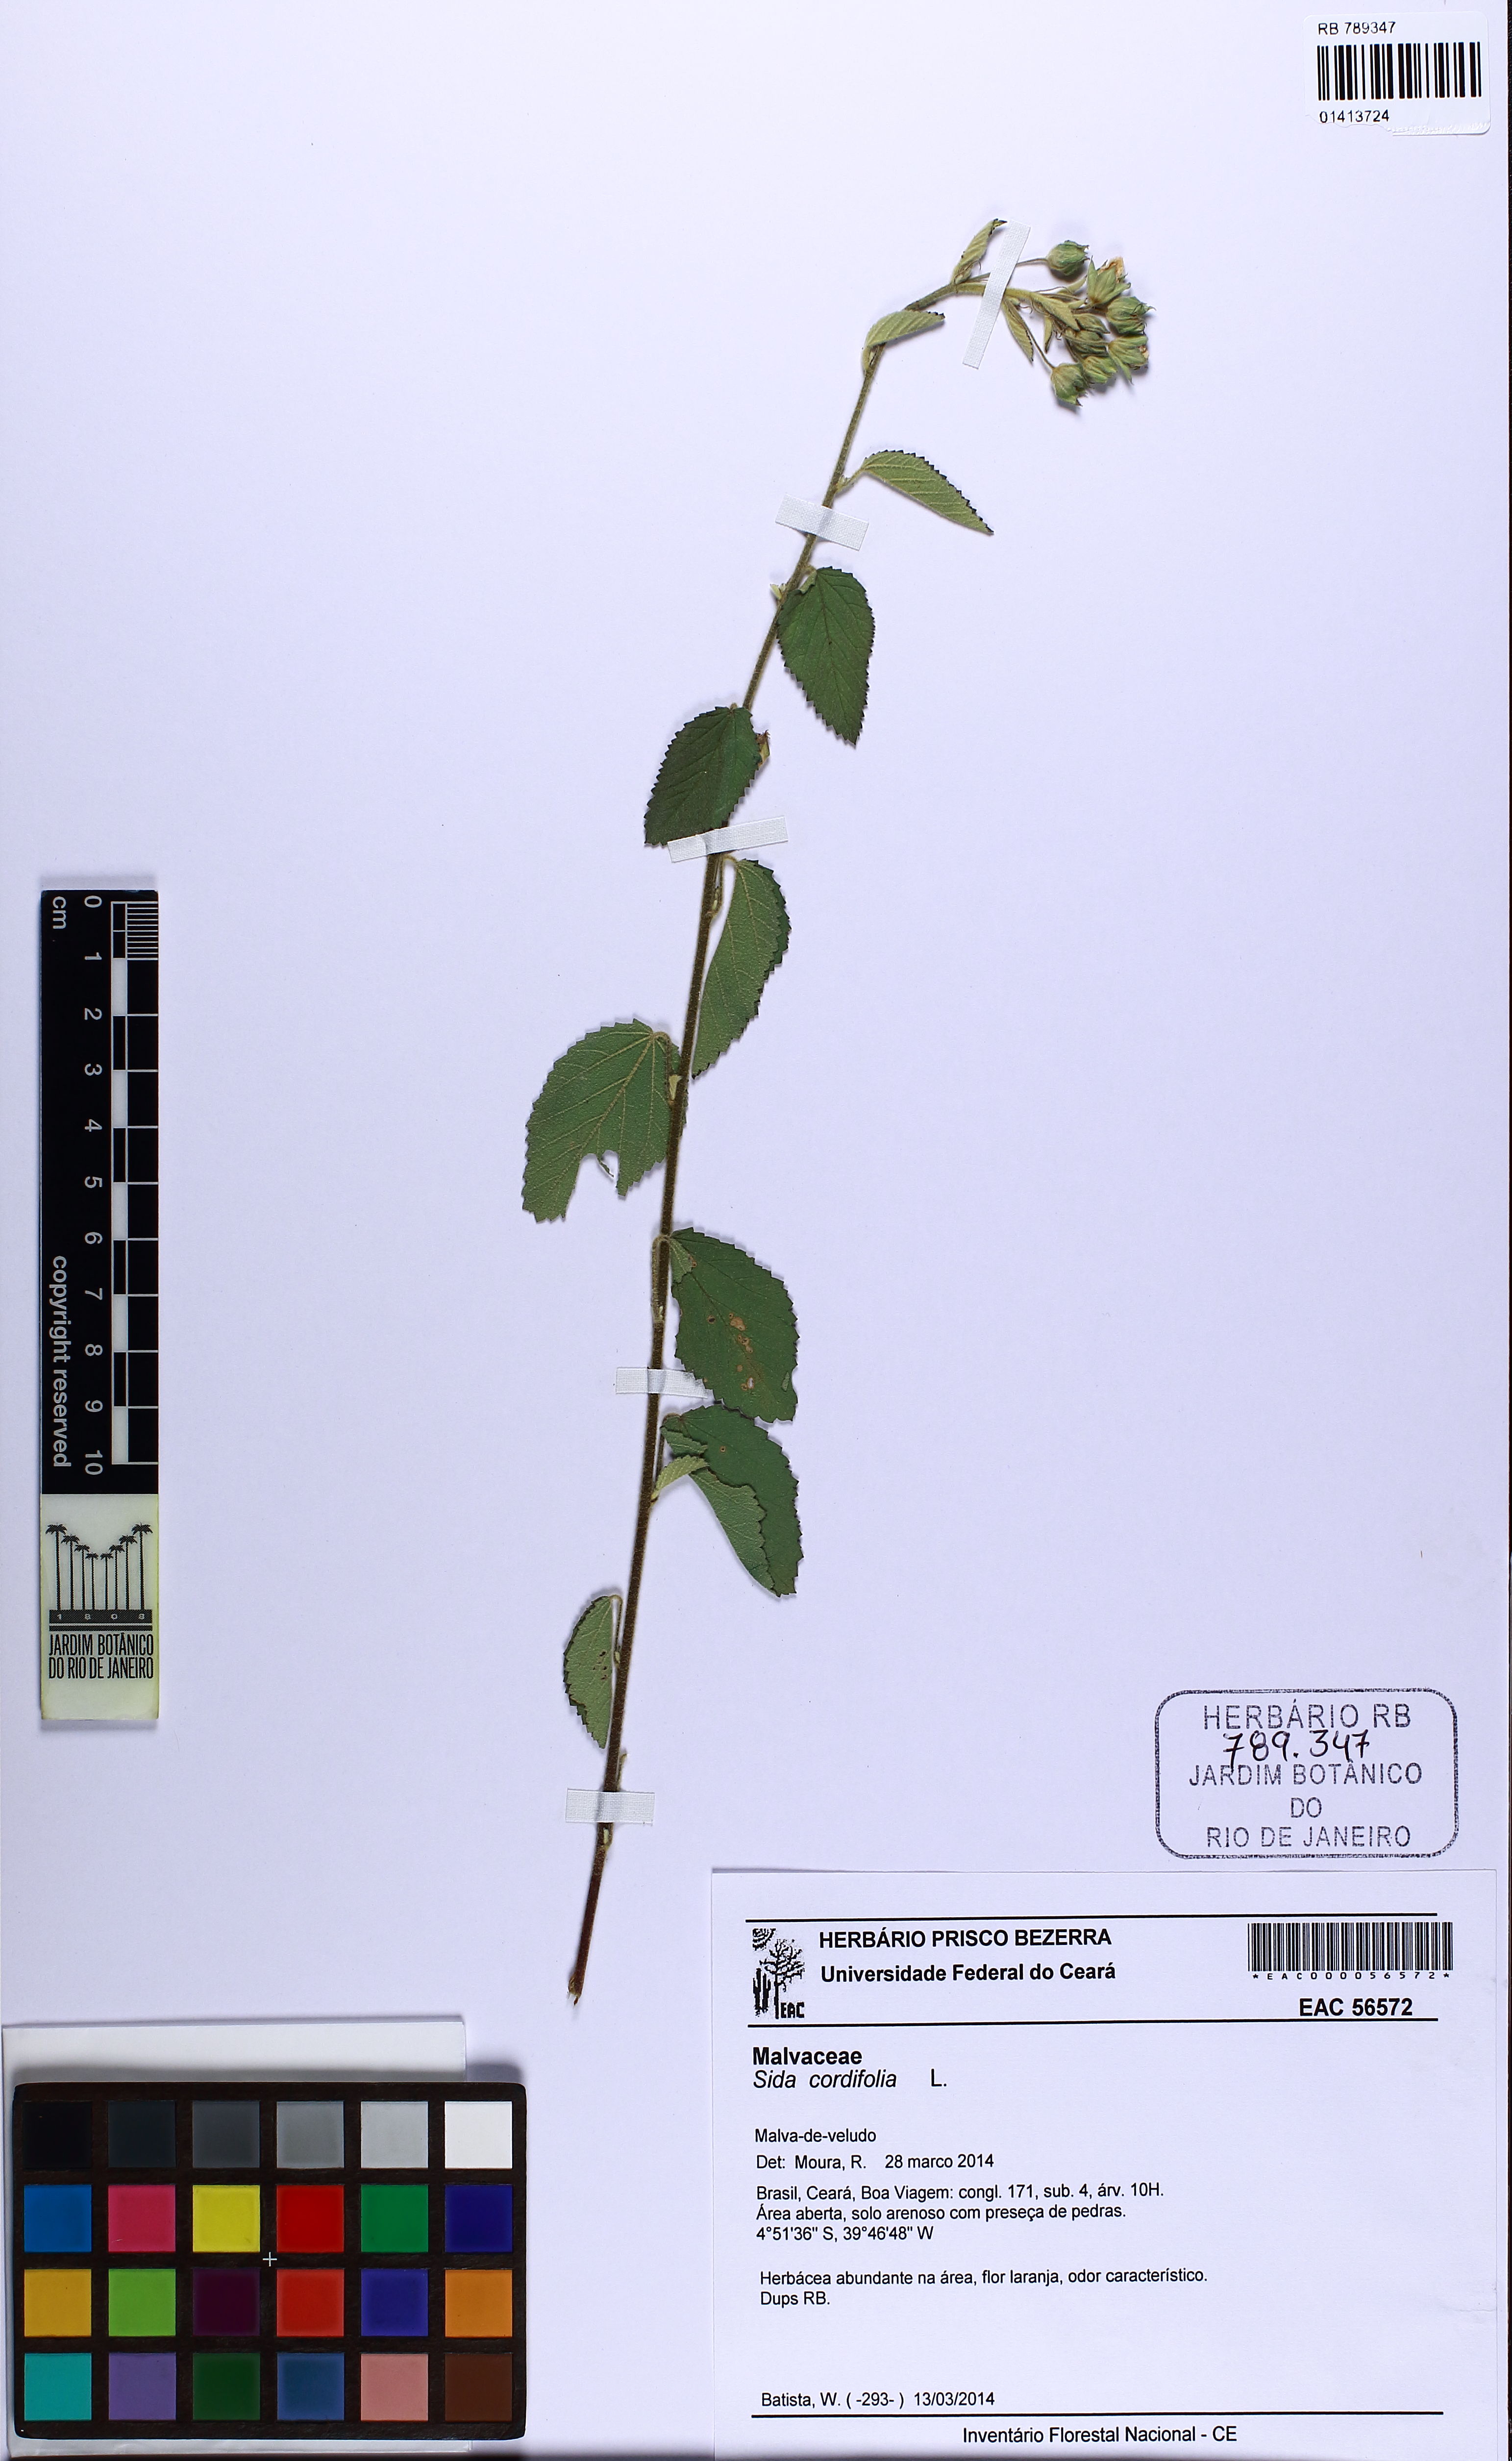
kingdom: Plantae
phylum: Tracheophyta
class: Magnoliopsida
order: Malvales
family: Malvaceae
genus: Sida
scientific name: Sida cordifolia
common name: Ilima
